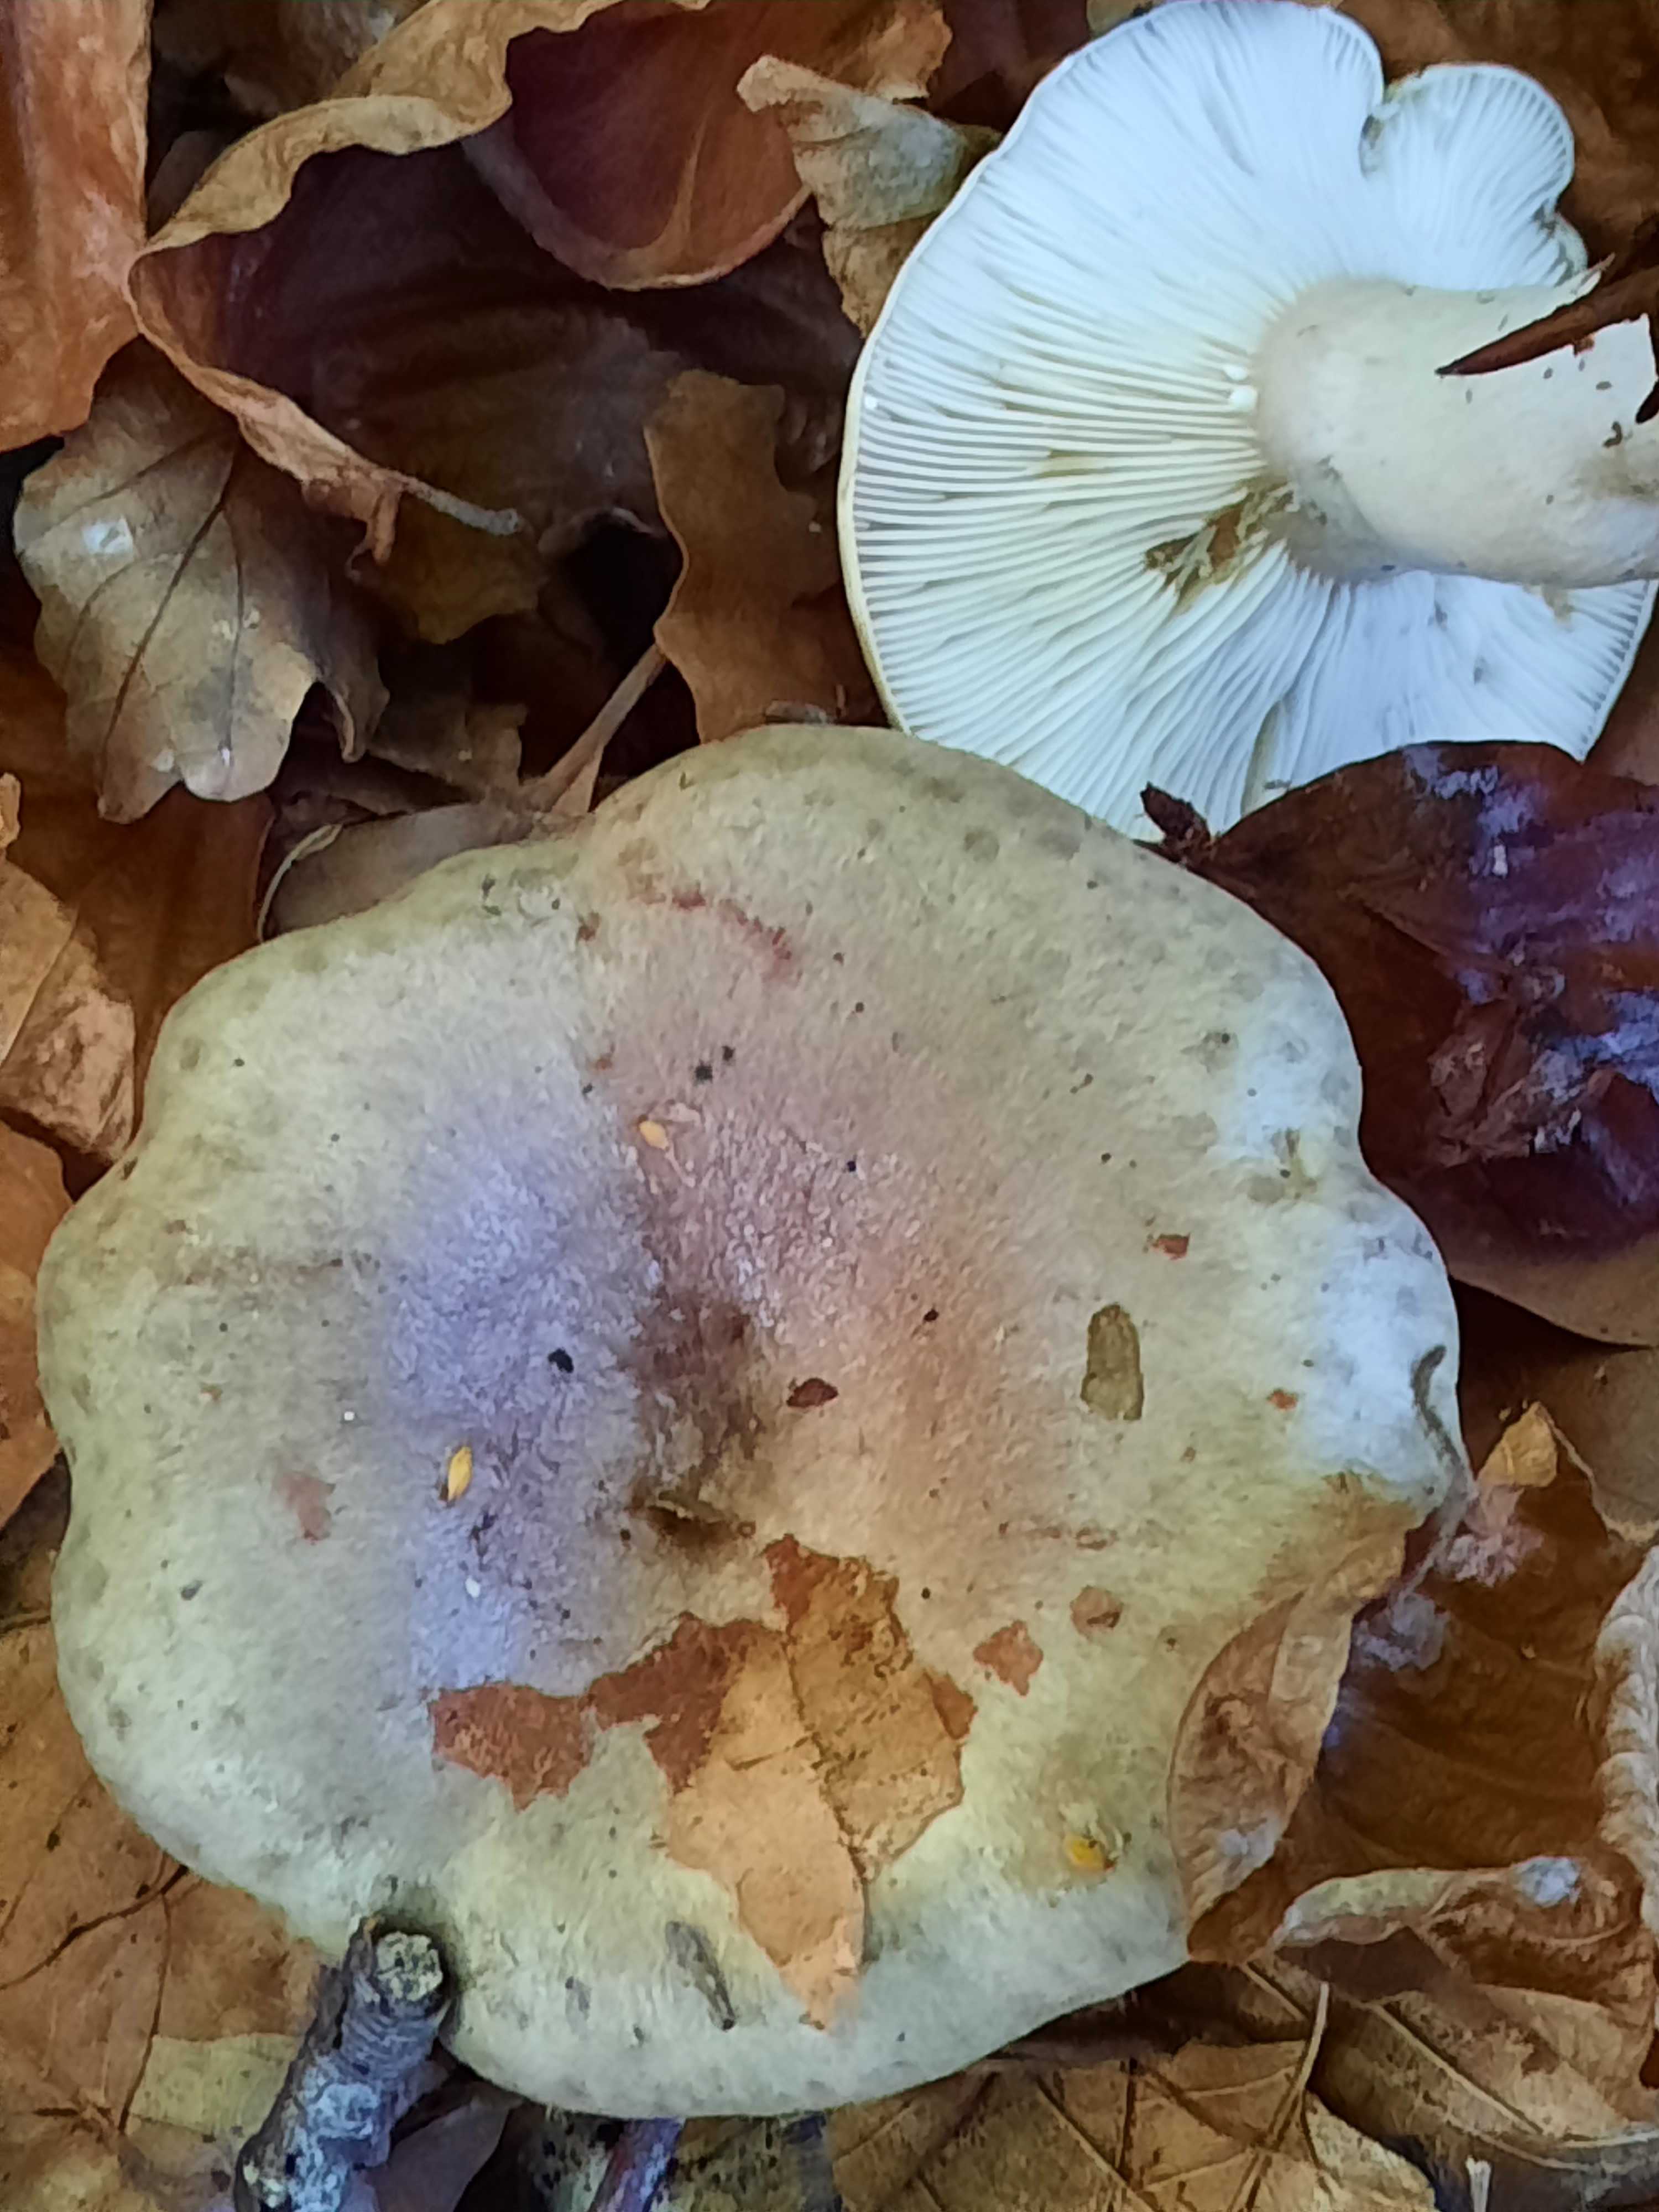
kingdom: Fungi
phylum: Basidiomycota
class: Agaricomycetes
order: Russulales
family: Russulaceae
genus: Lactarius
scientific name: Lactarius blennius
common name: dråbeplettet mælkehat
